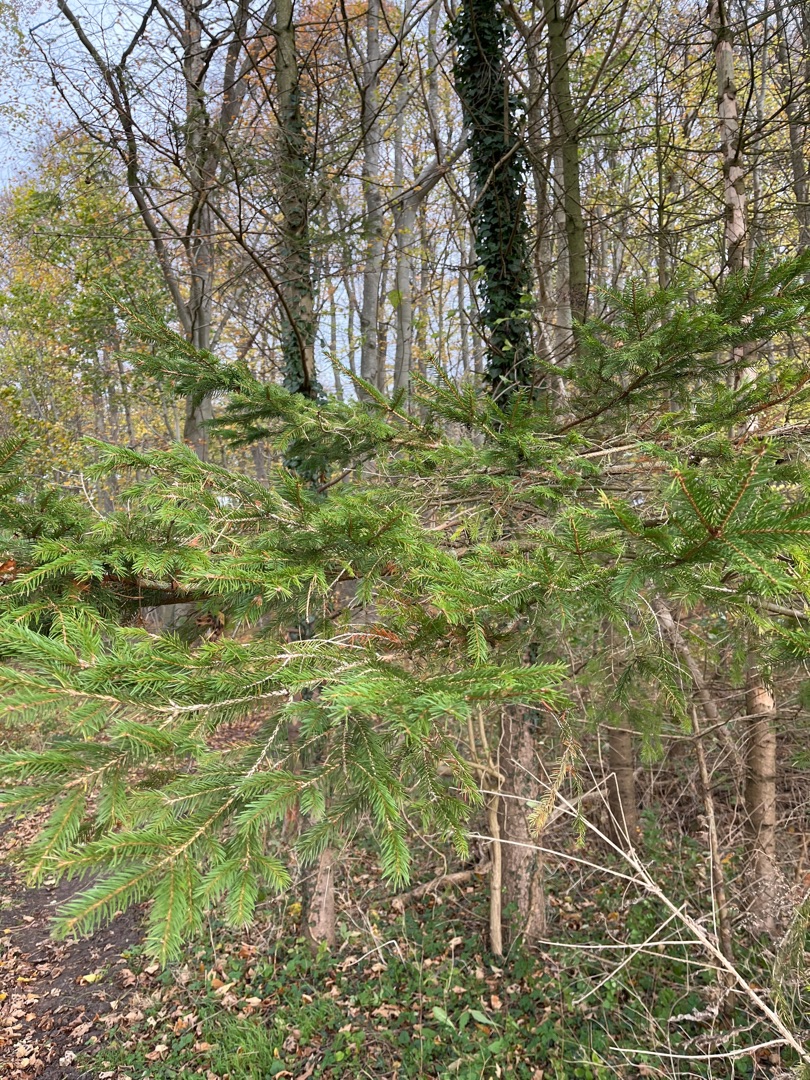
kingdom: Plantae
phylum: Tracheophyta
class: Pinopsida
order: Pinales
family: Pinaceae
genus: Picea
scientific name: Picea abies
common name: Rød-gran
